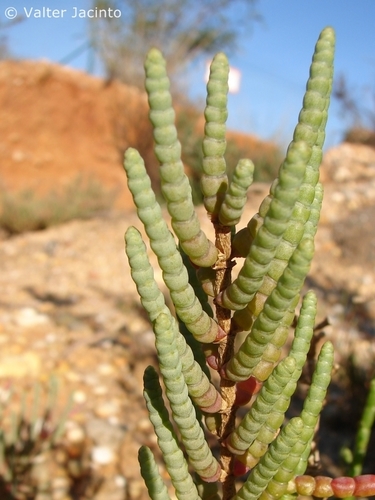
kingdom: Plantae
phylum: Tracheophyta
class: Magnoliopsida
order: Caryophyllales
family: Amaranthaceae
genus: Arthrocaulon
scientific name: Arthrocaulon macrostachyum
